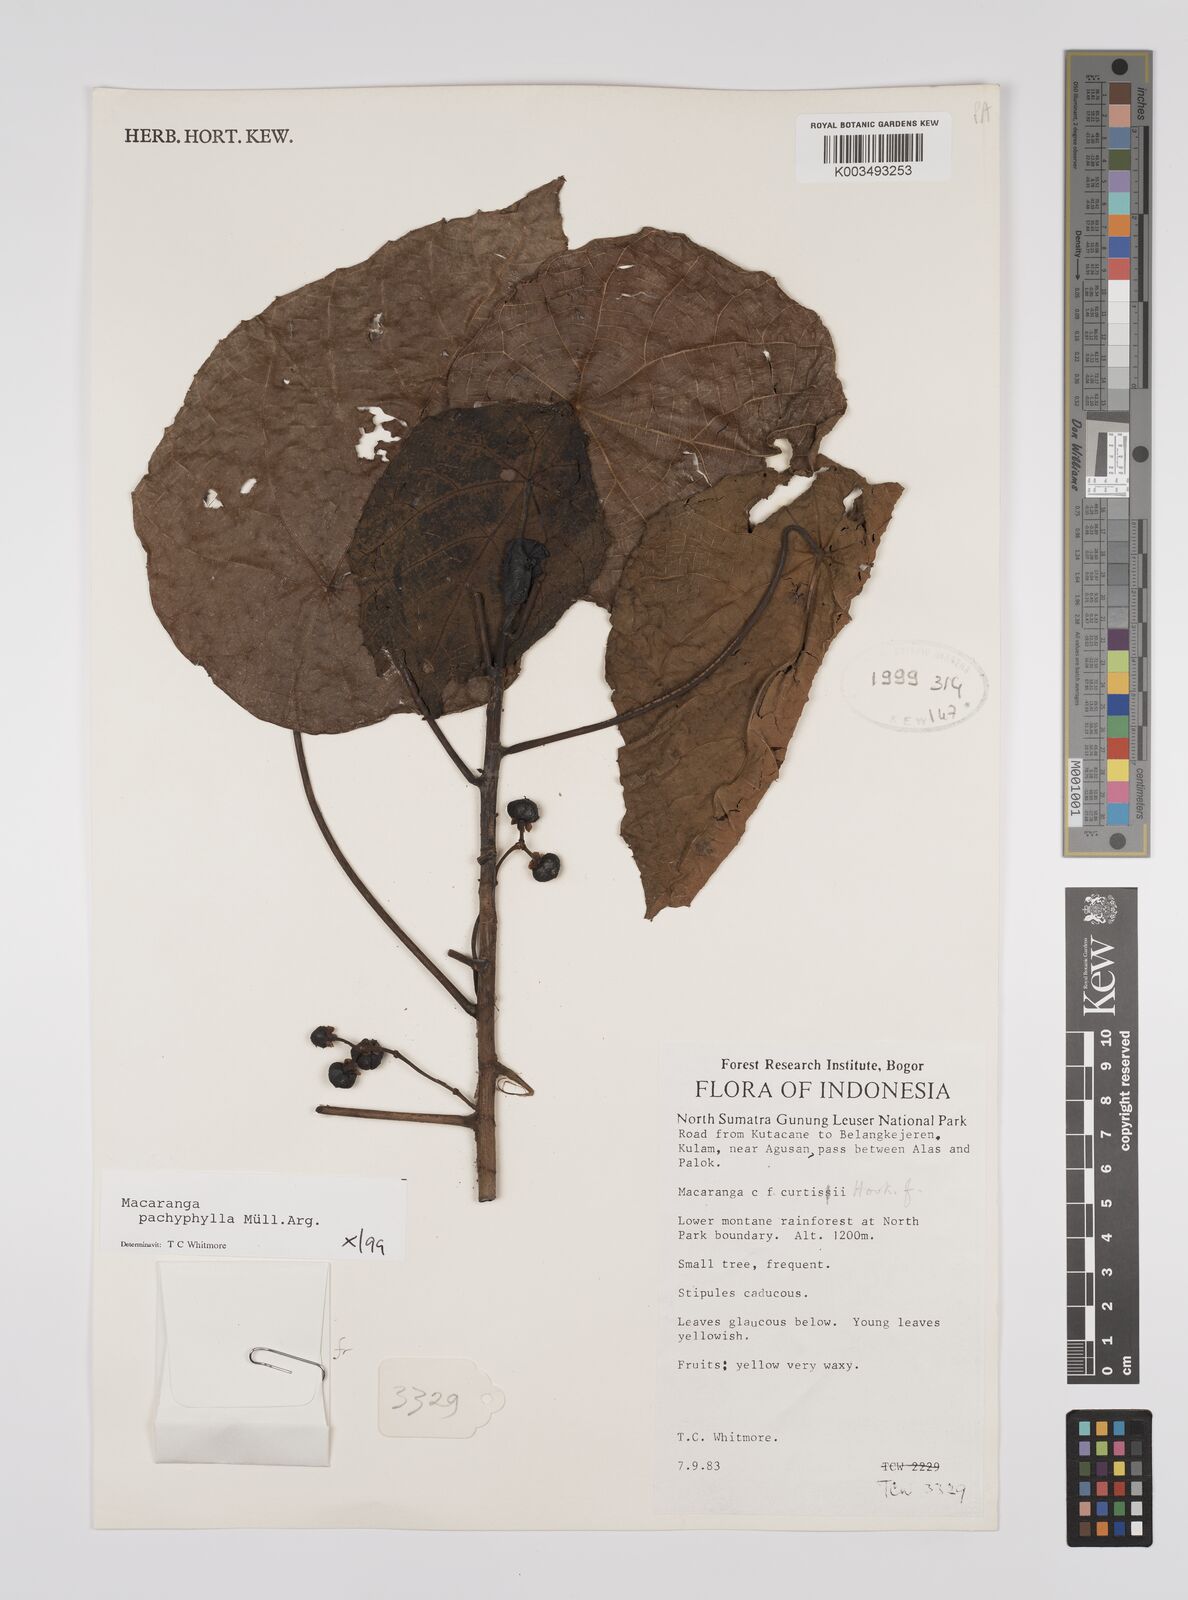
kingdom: Plantae
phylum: Tracheophyta
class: Magnoliopsida
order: Malpighiales
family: Euphorbiaceae
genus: Macaranga
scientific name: Macaranga pachyphylla
